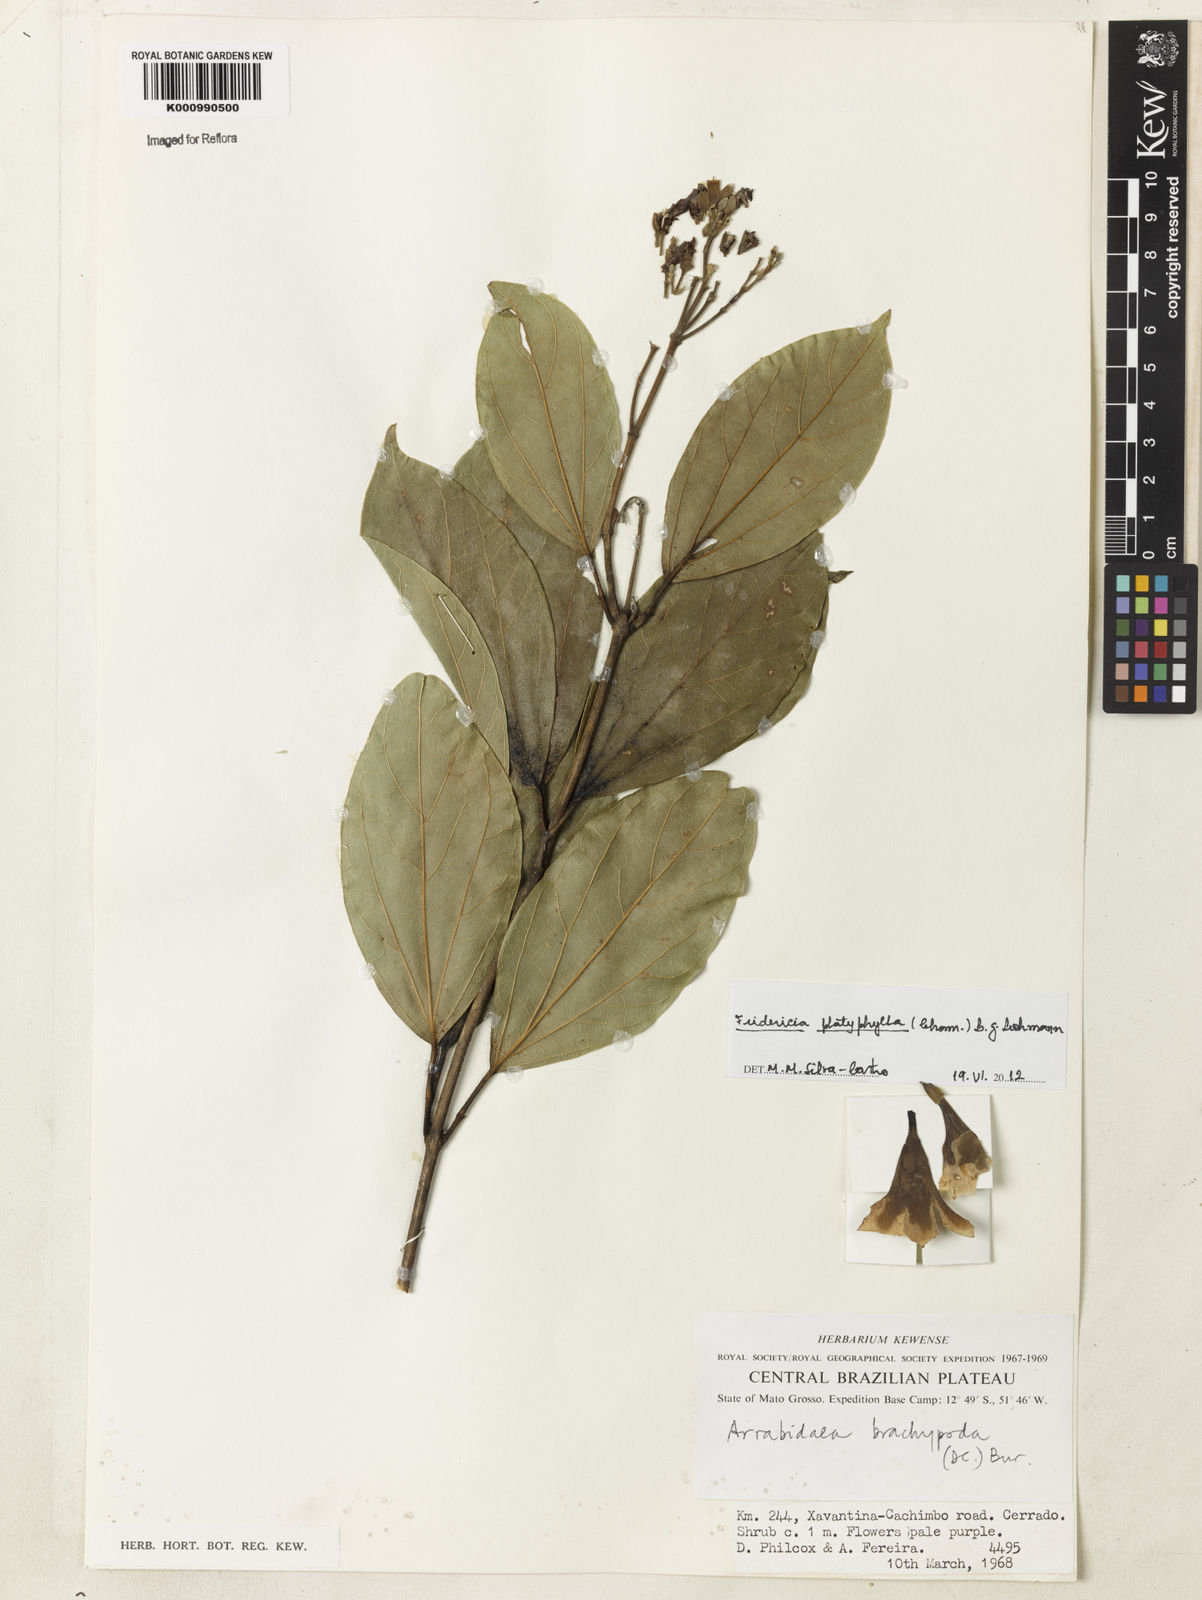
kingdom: Plantae
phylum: Tracheophyta
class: Magnoliopsida
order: Lamiales
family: Bignoniaceae
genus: Fridericia
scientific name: Fridericia platyphylla
